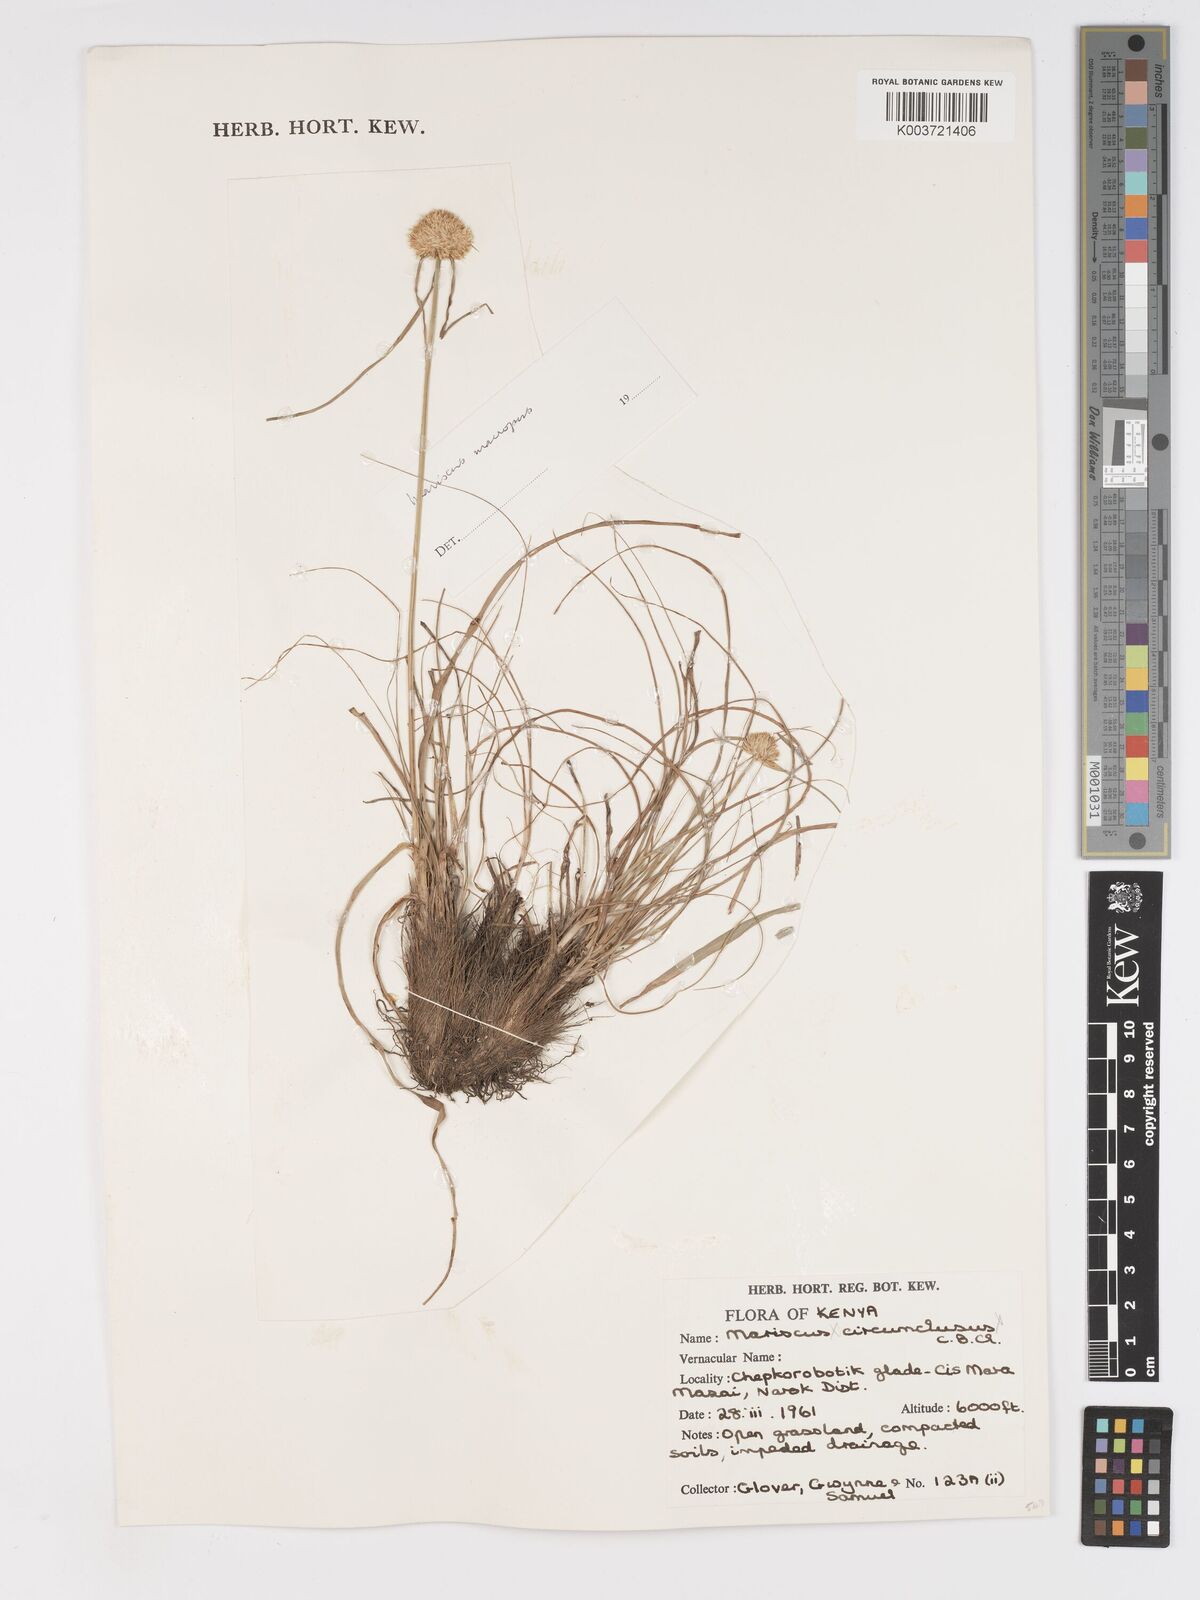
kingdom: Plantae
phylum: Tracheophyta
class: Liliopsida
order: Poales
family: Cyperaceae
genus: Cyperus
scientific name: Cyperus mollipes
